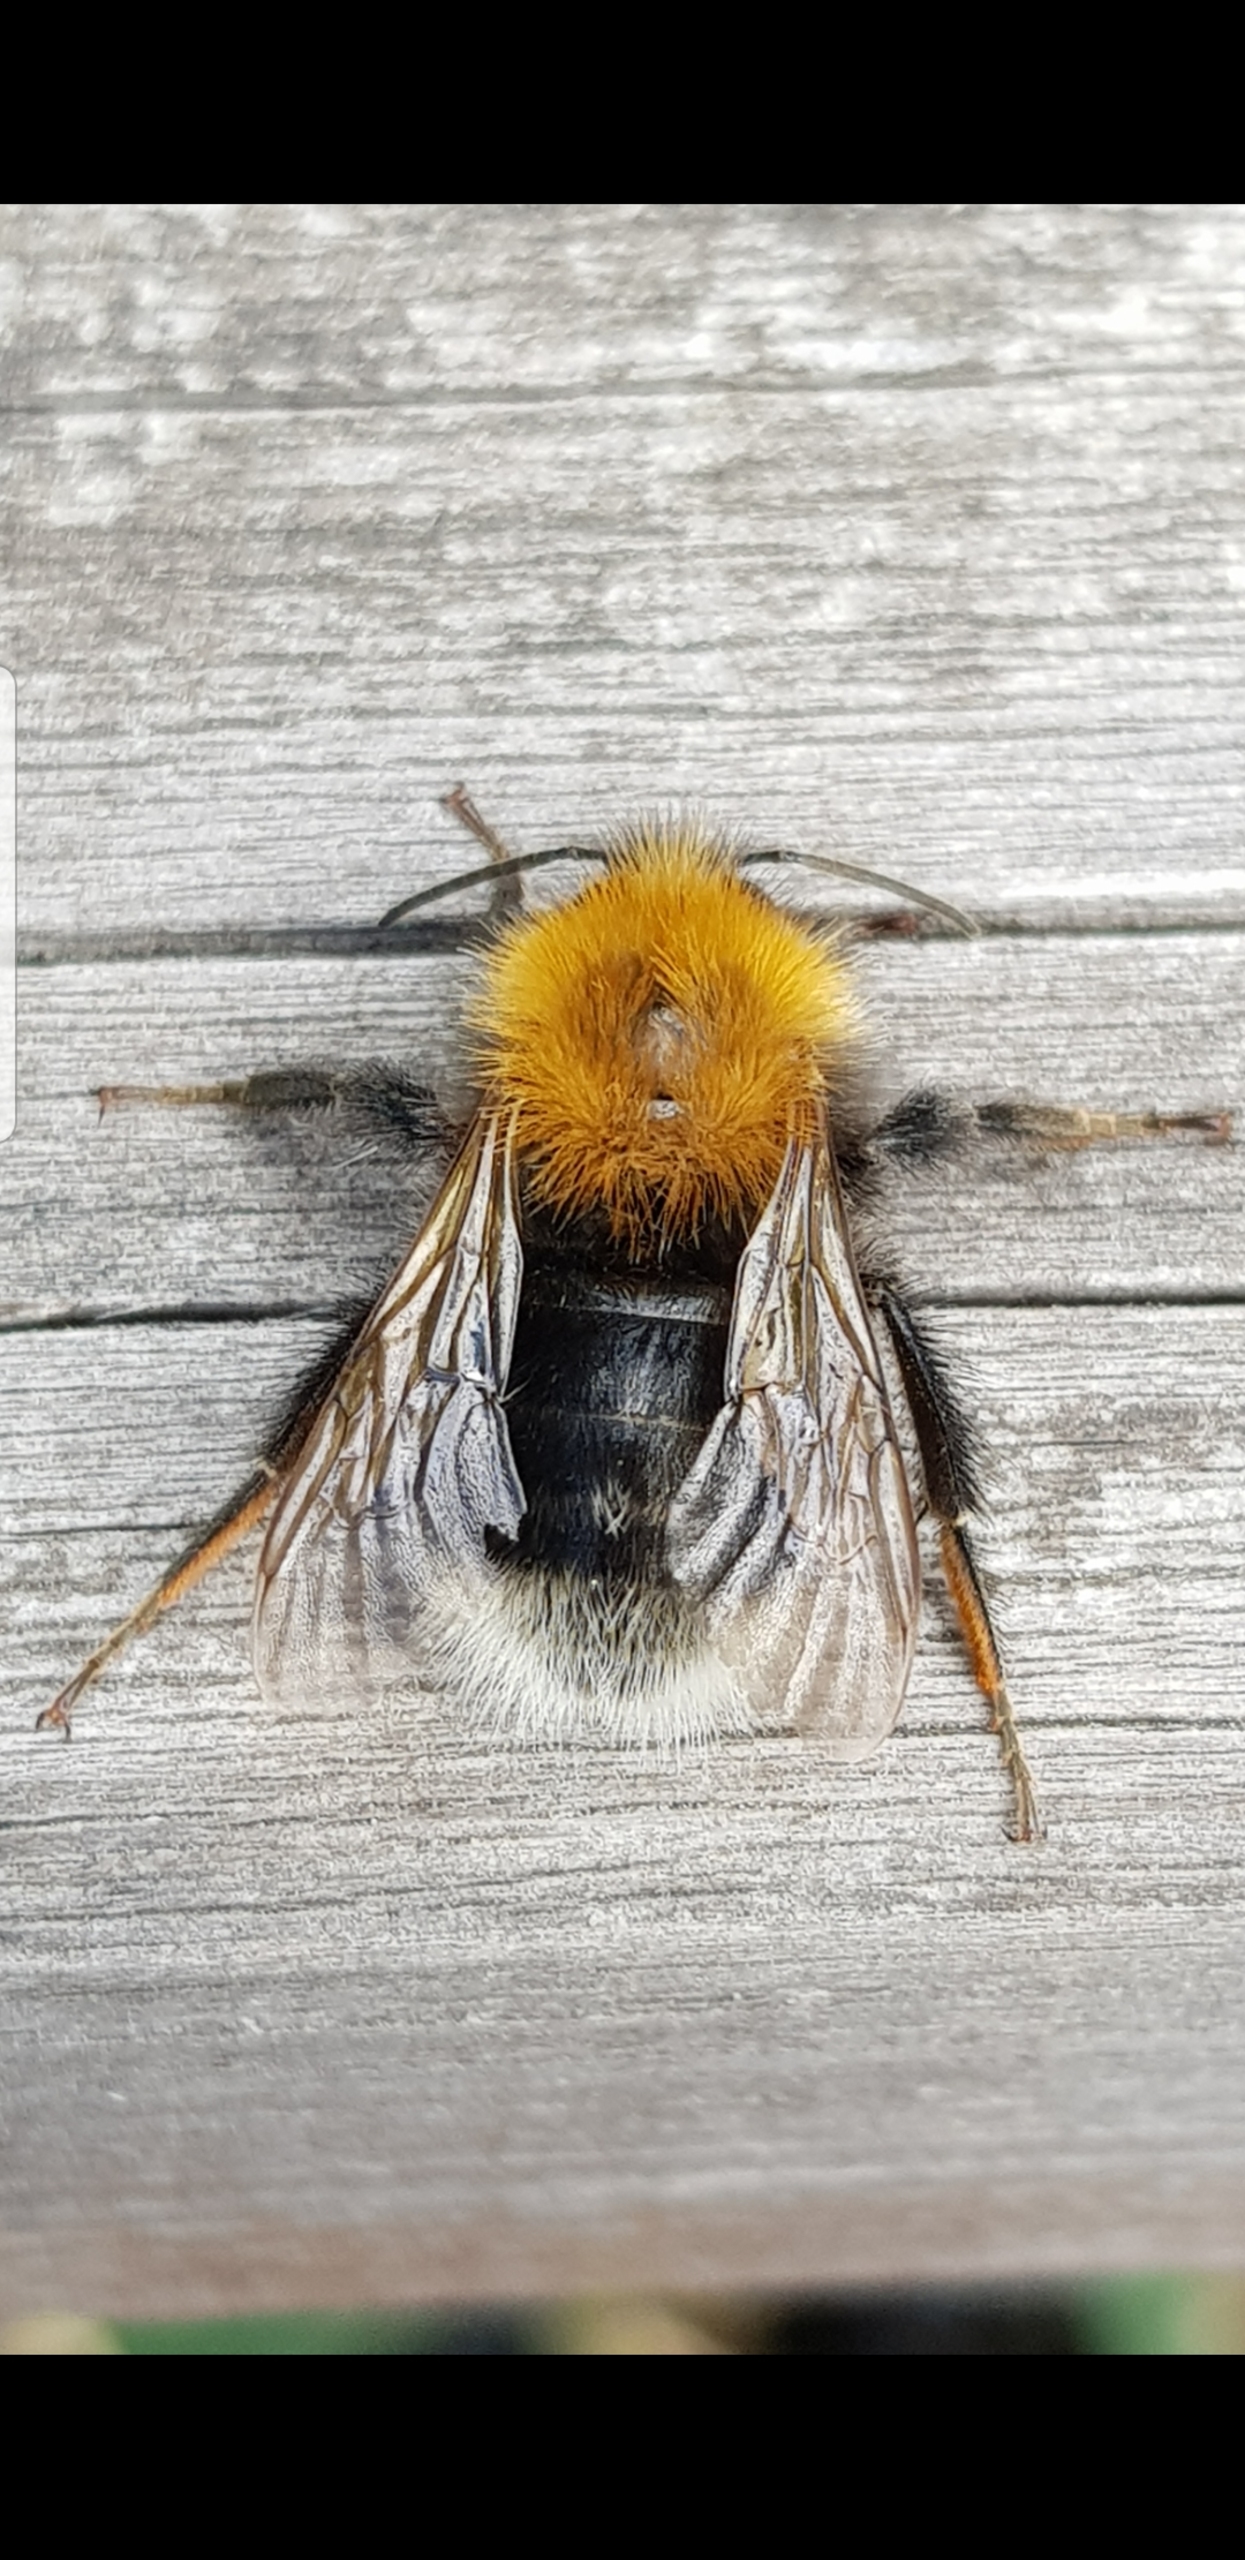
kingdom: Animalia
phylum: Arthropoda
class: Insecta
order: Hymenoptera
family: Apidae
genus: Bombus
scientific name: Bombus hypnorum
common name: Hushumle
